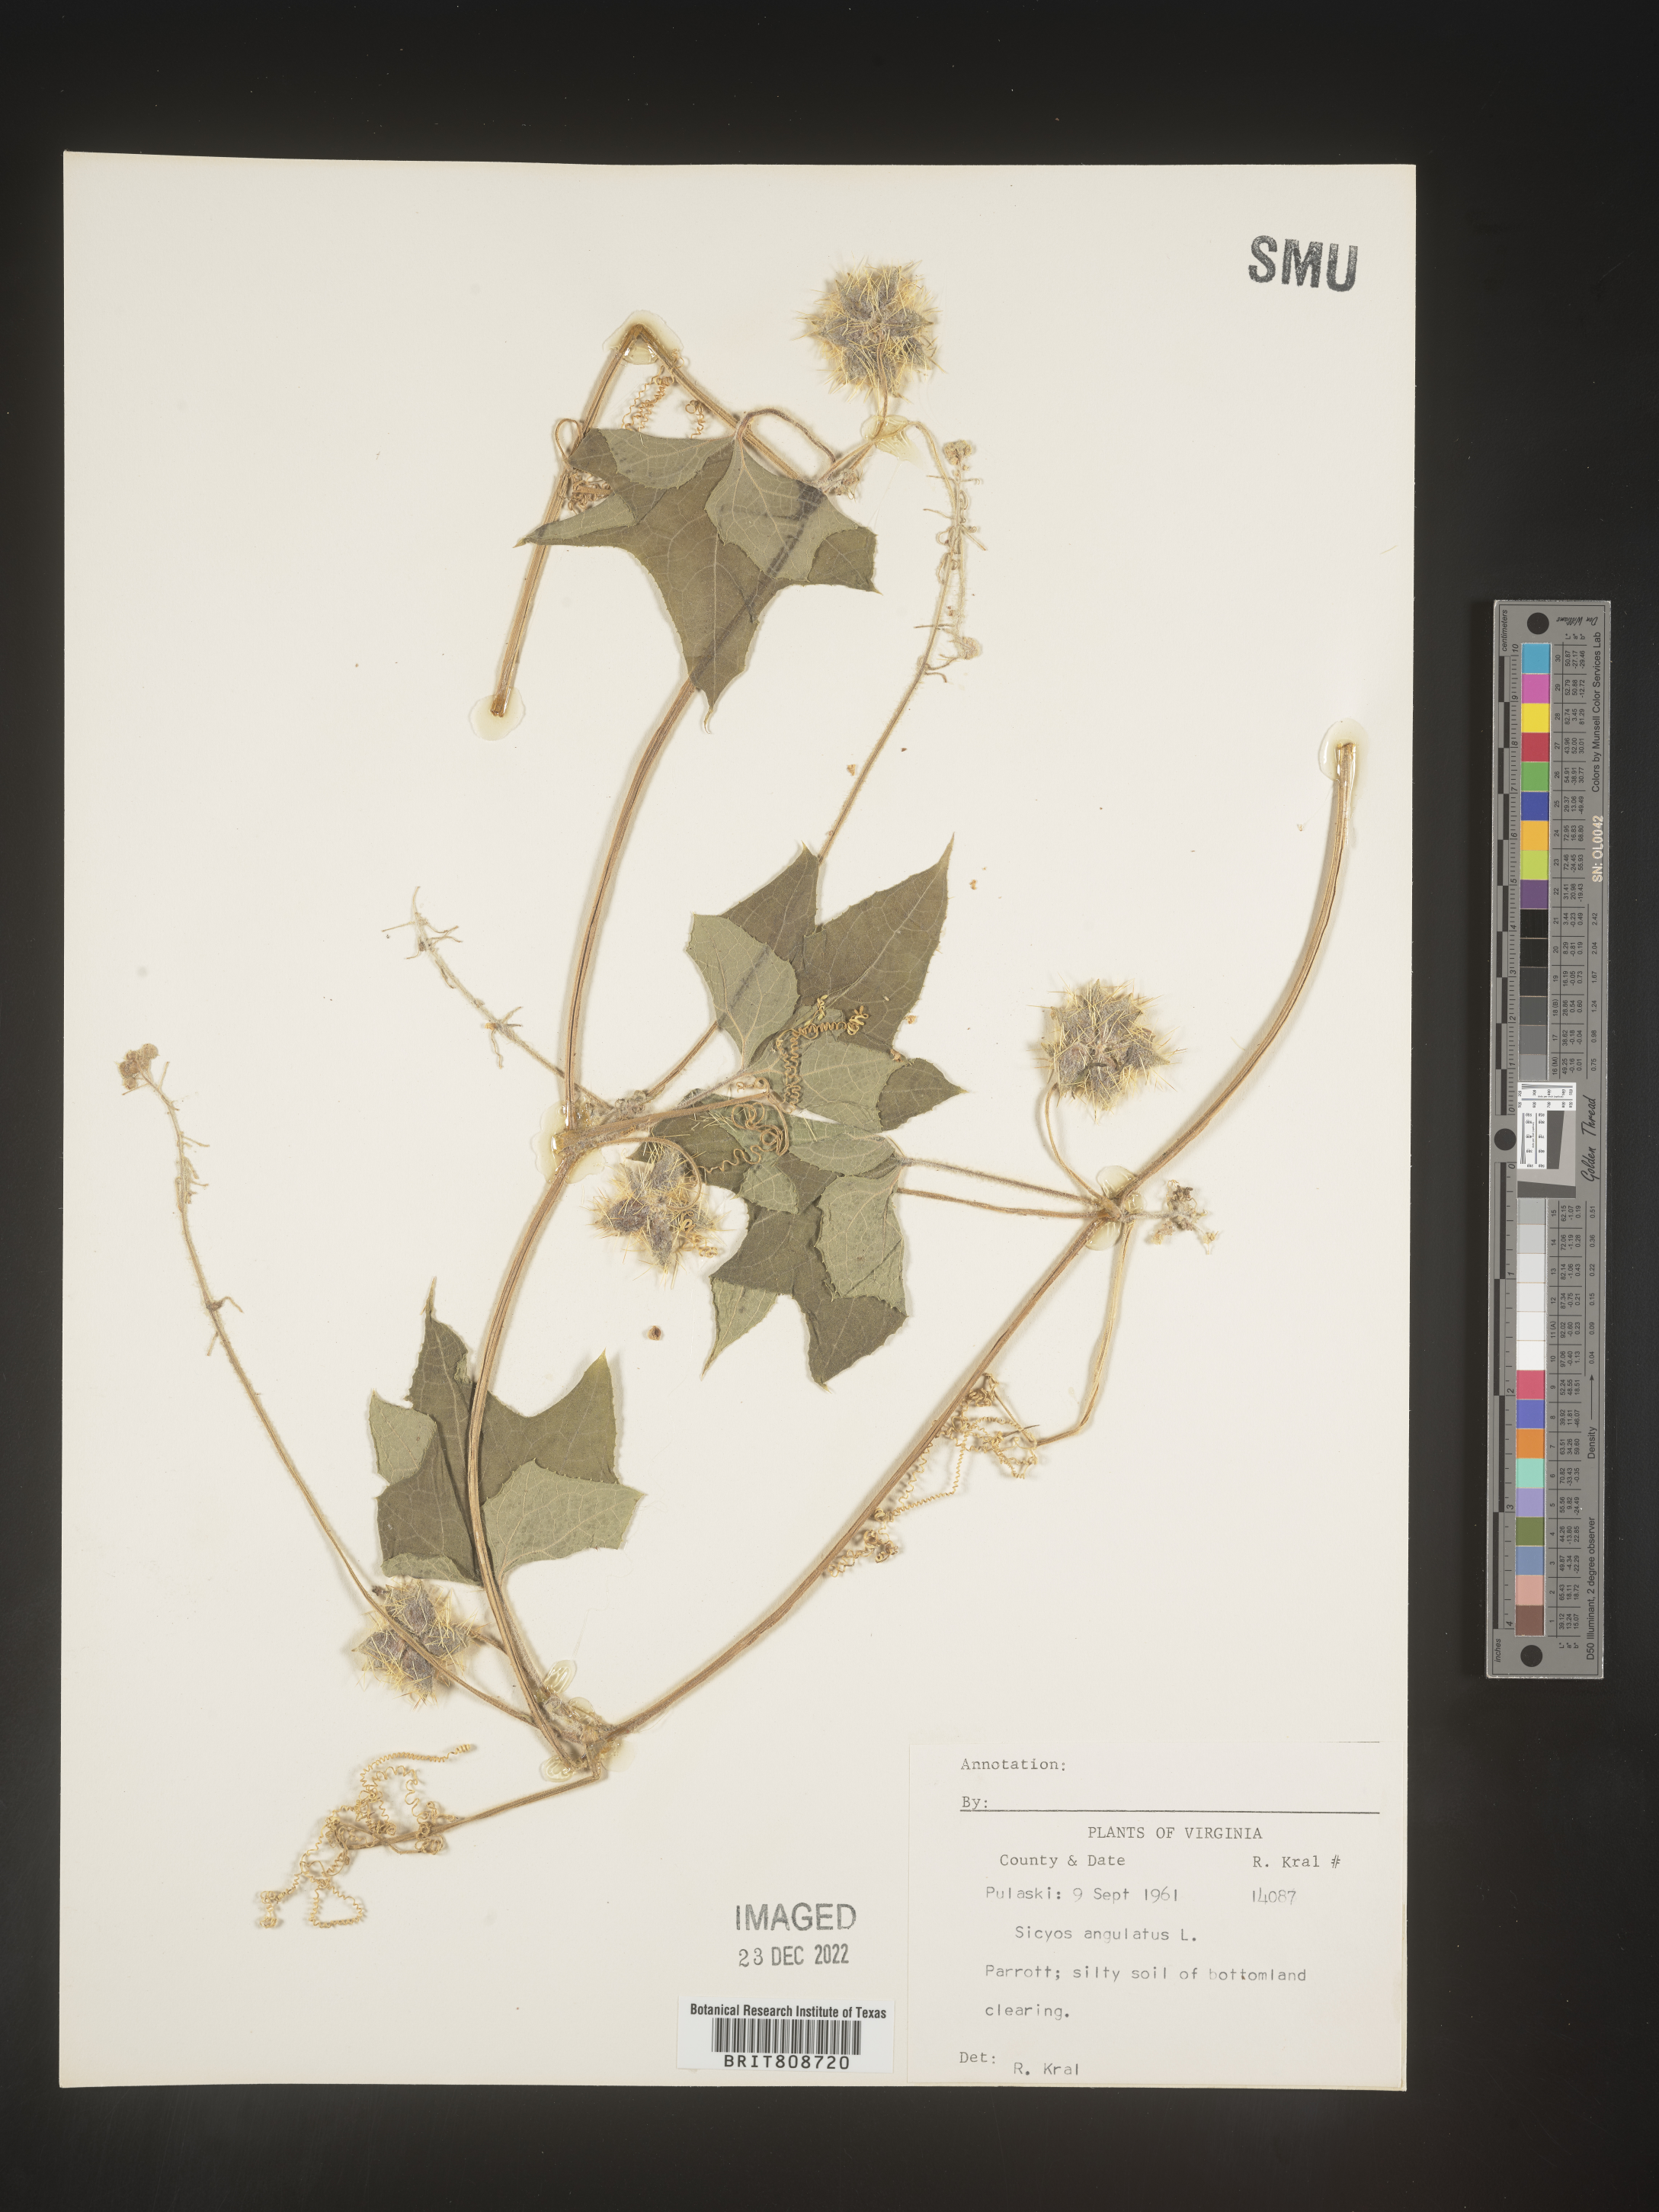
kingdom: Plantae
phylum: Tracheophyta
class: Magnoliopsida
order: Cucurbitales
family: Cucurbitaceae
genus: Sicyos
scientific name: Sicyos angulatus
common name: Angled burr cucumber
